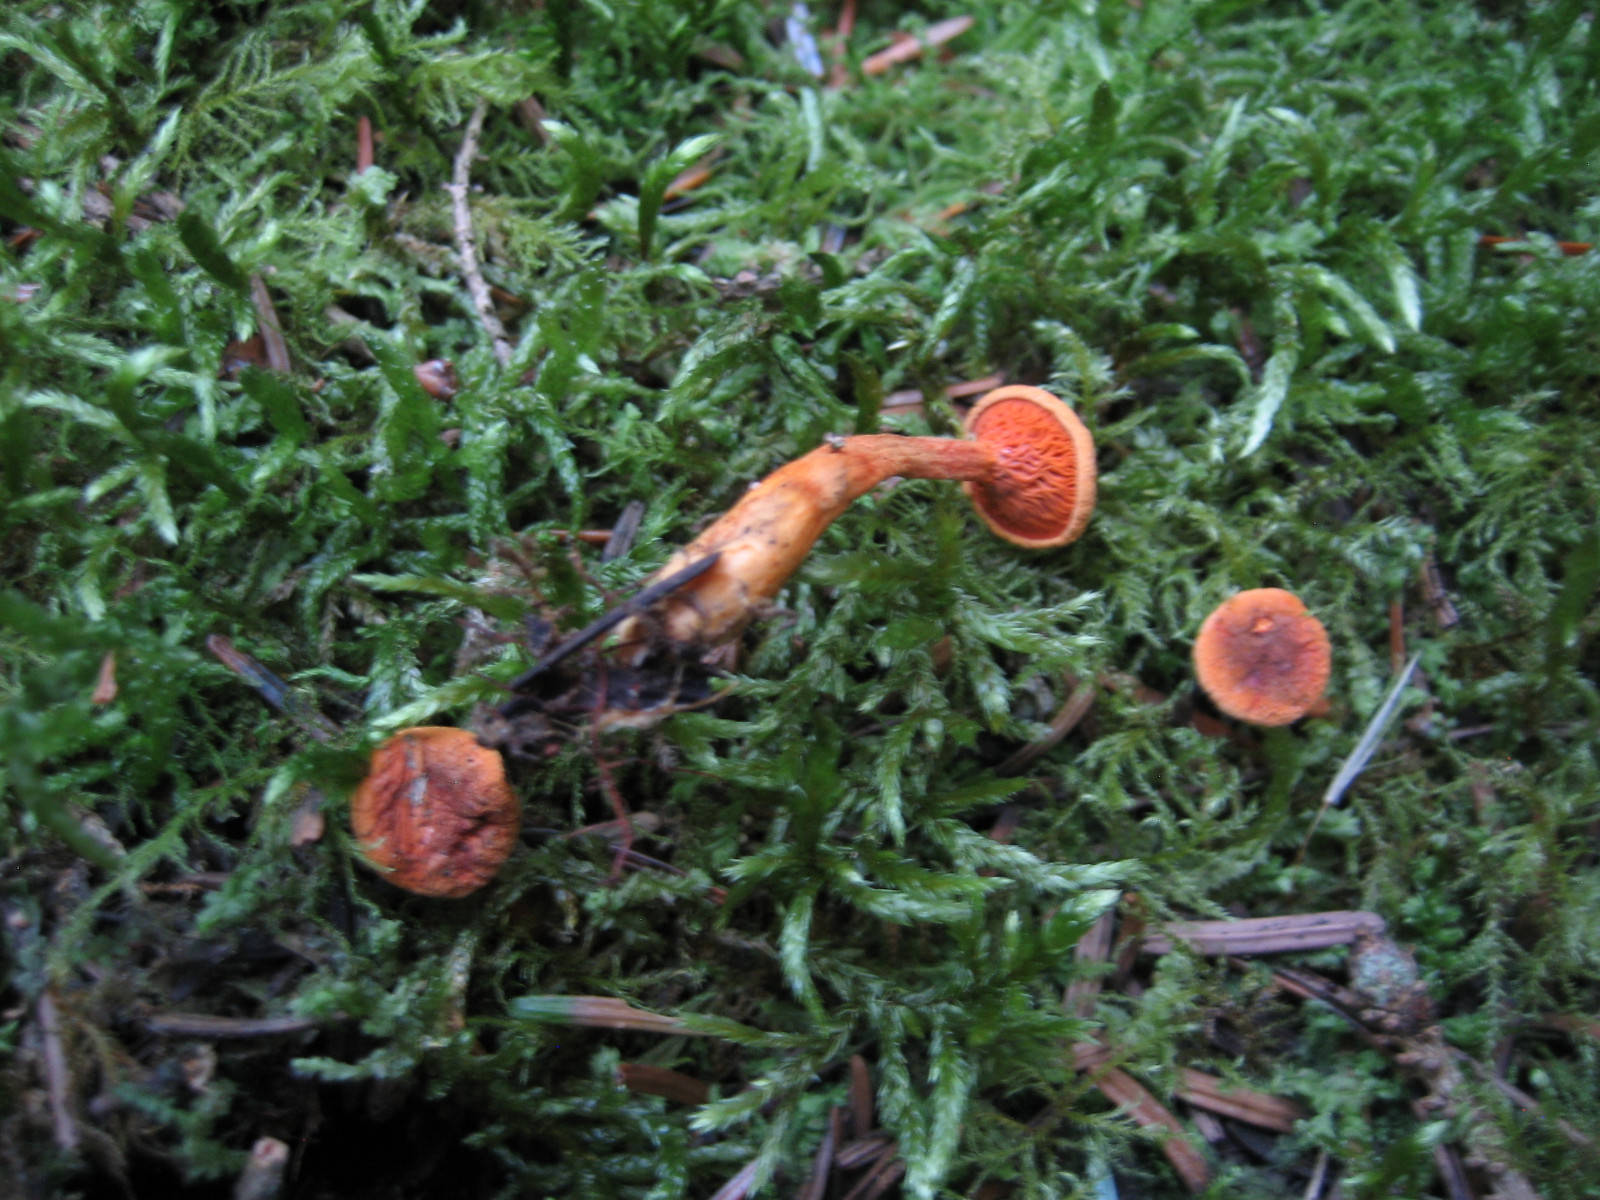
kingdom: Fungi
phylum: Basidiomycota
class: Agaricomycetes
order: Boletales
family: Hygrophoropsidaceae
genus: Hygrophoropsis
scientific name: Hygrophoropsis
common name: orangekantarel
